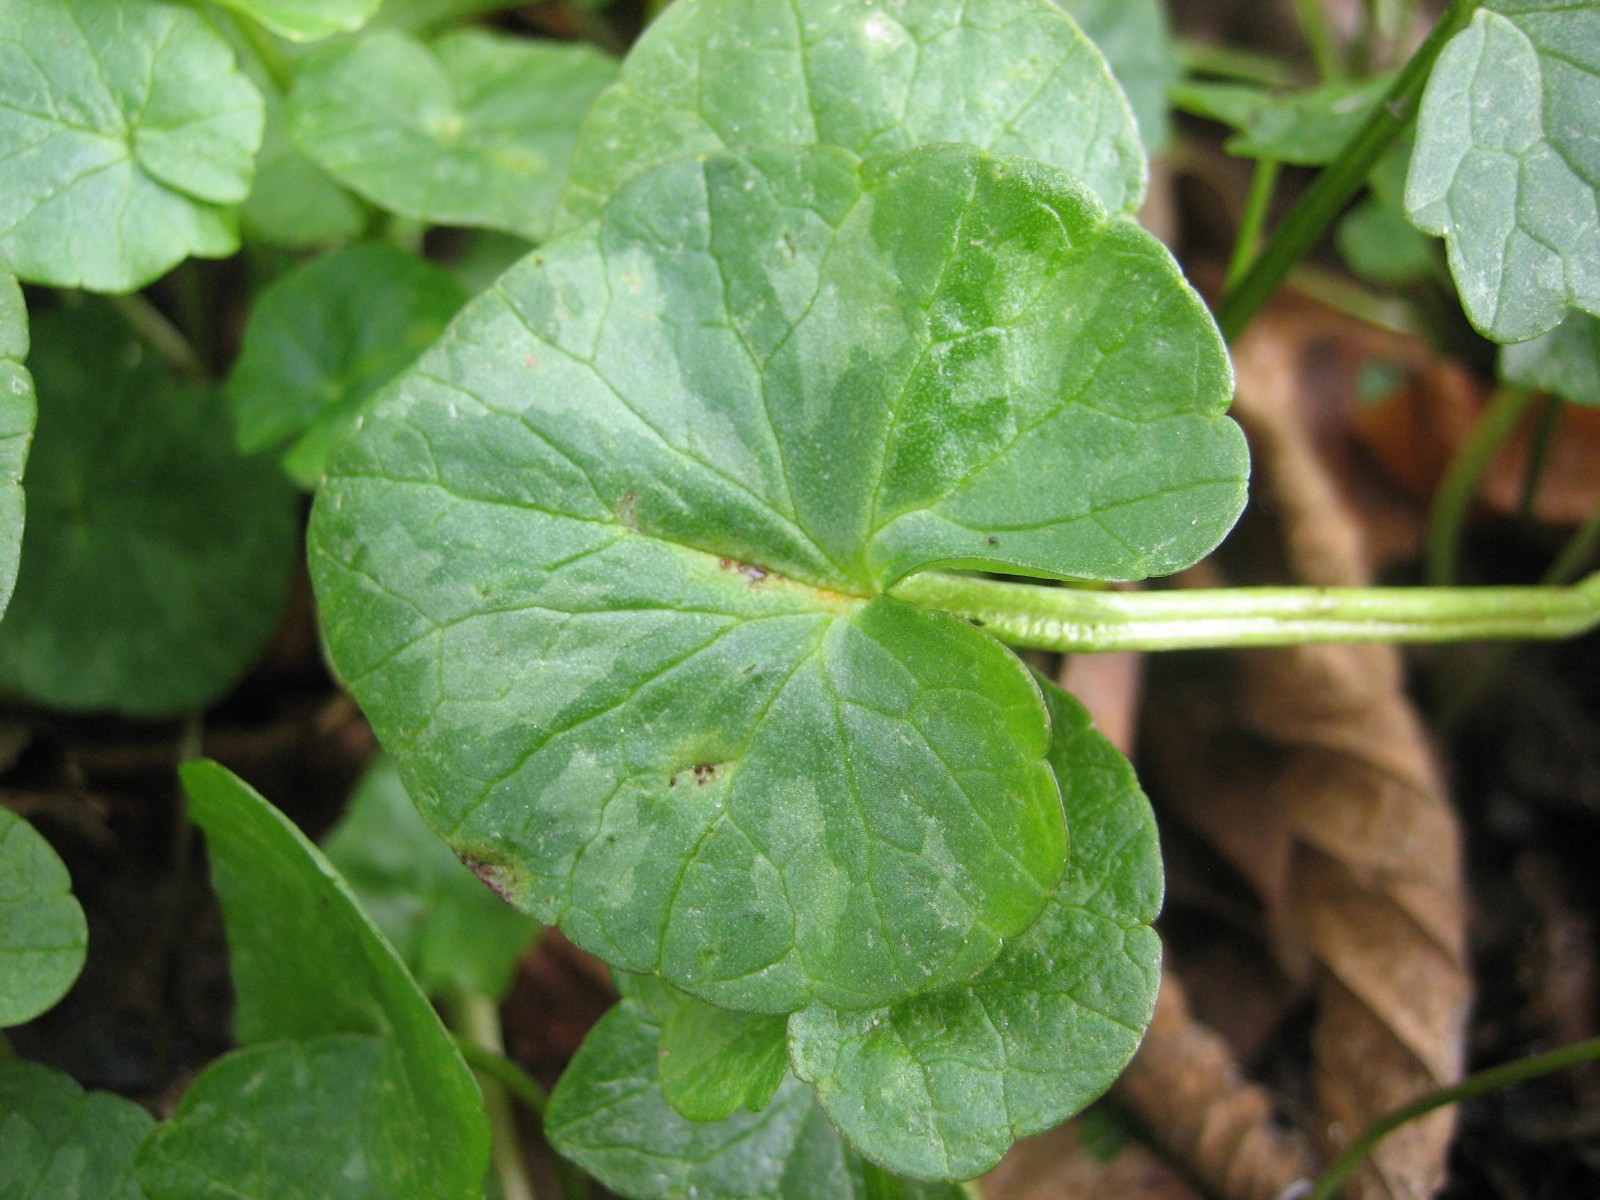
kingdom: Fungi
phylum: Basidiomycota
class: Pucciniomycetes
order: Pucciniales
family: Pucciniaceae
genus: Uromyces
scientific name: Uromyces ficariae
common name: vorterod-encellerust
